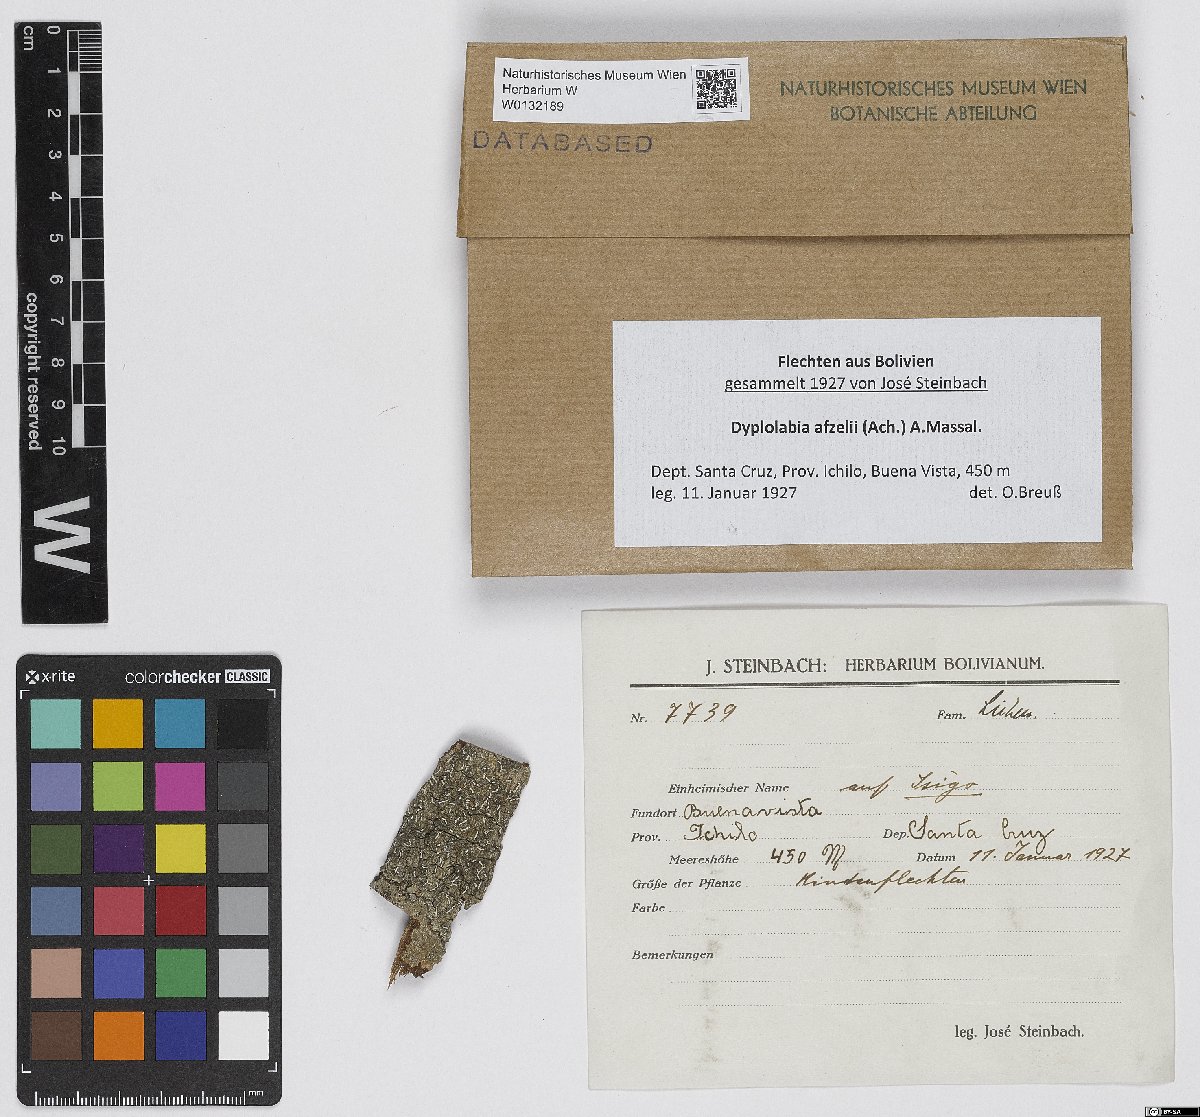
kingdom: Fungi
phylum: Ascomycota
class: Lecanoromycetes
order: Ostropales
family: Graphidaceae
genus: Dyplolabia
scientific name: Dyplolabia afzelii
